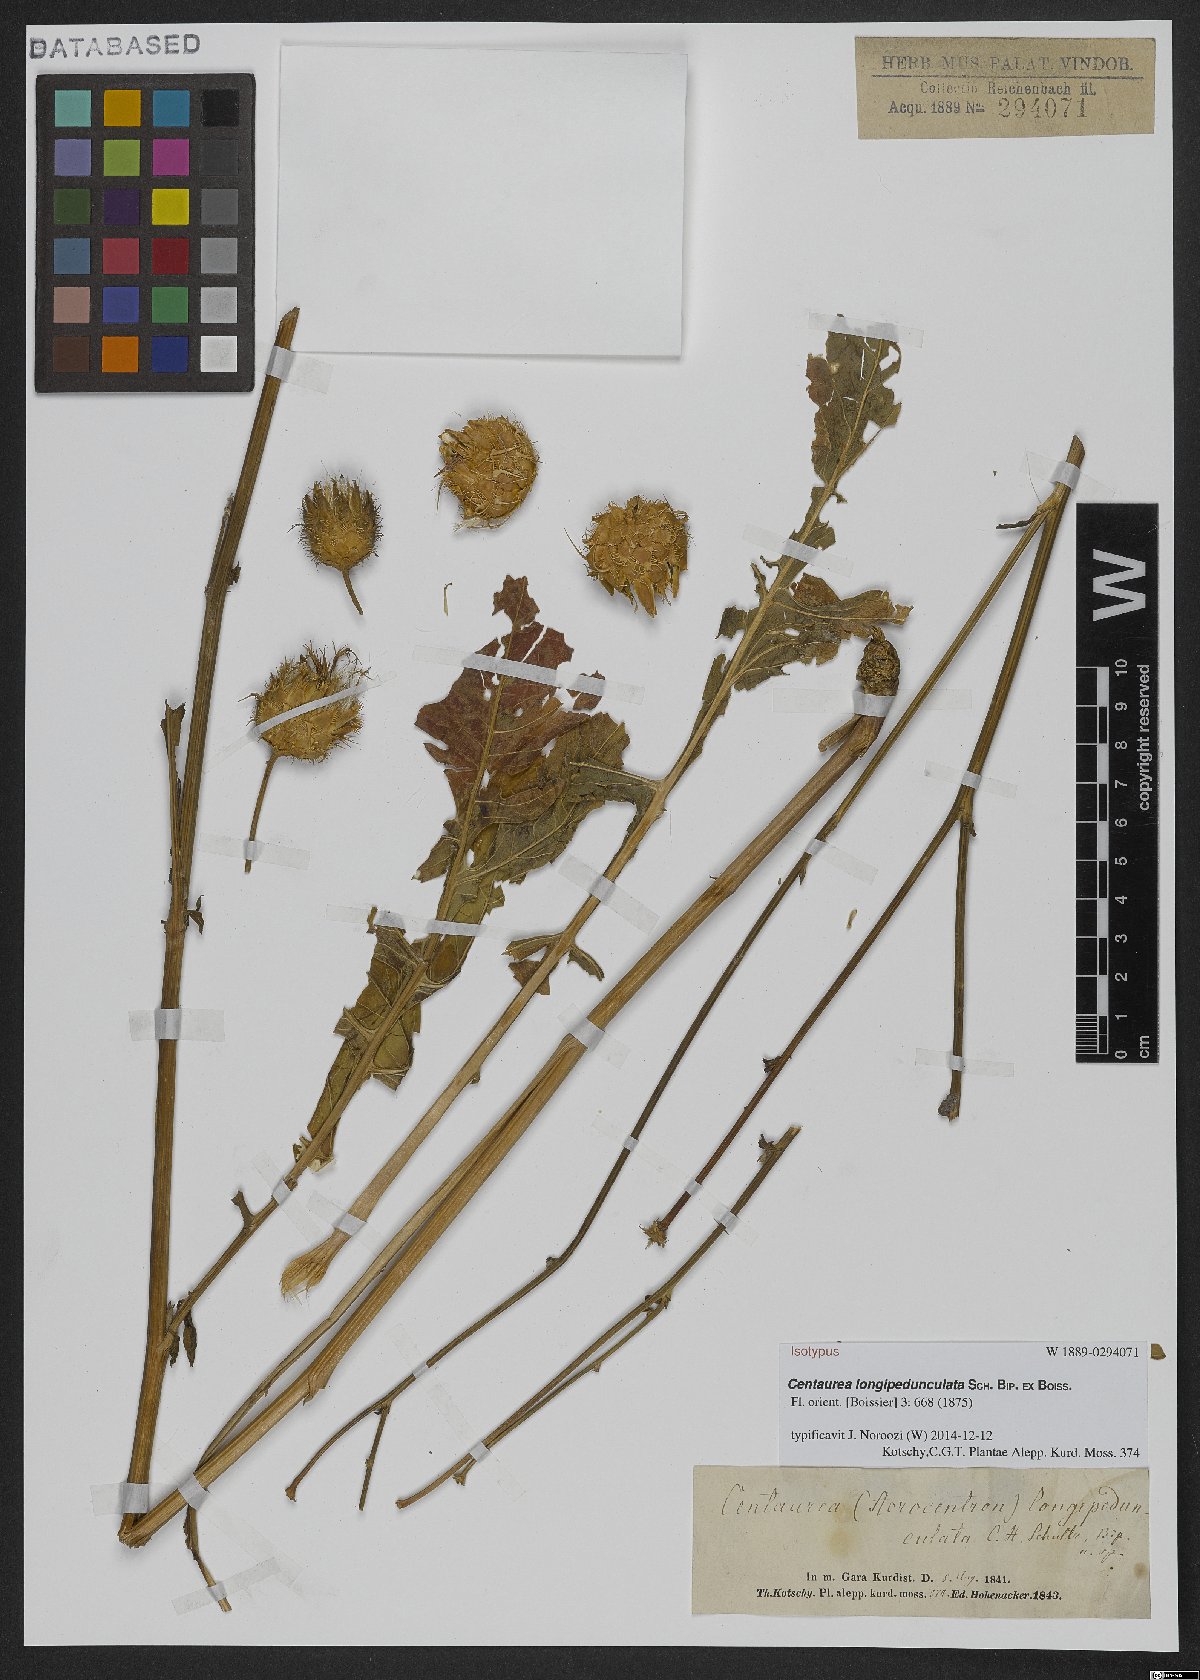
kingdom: Plantae
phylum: Tracheophyta
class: Magnoliopsida
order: Asterales
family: Asteraceae
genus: Centaurea
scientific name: Centaurea longepedunculata
